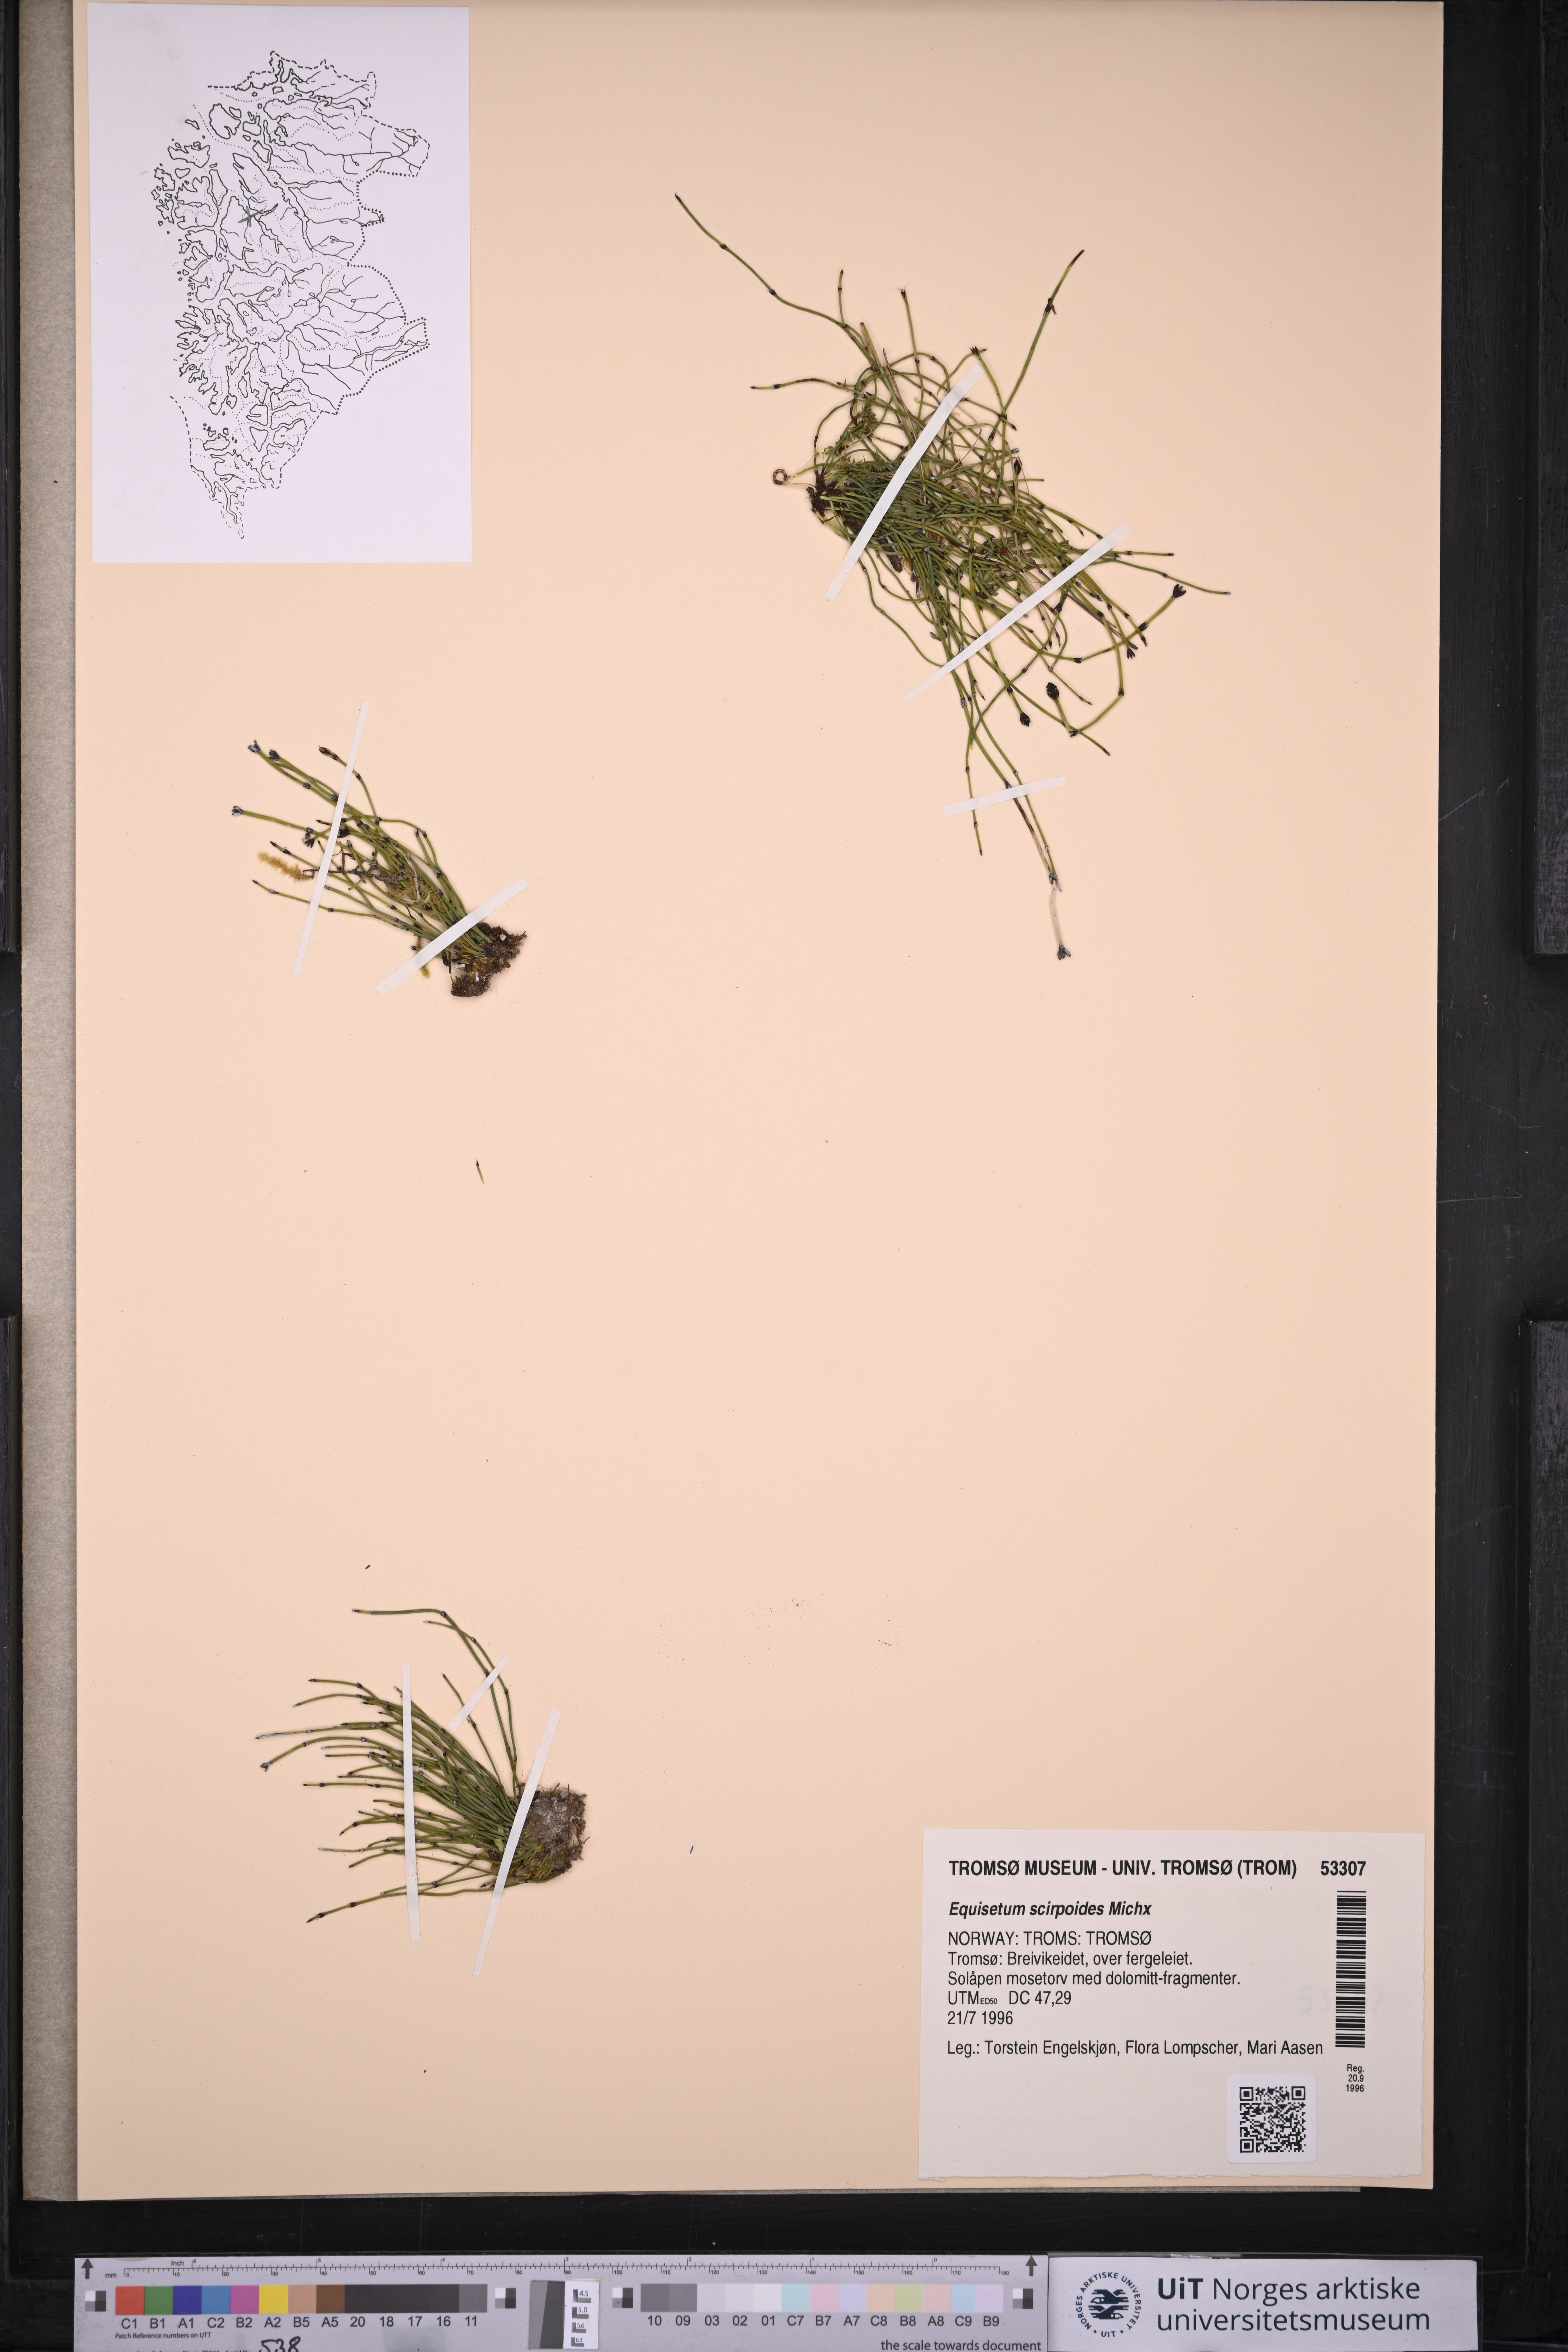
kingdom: Plantae
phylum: Tracheophyta
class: Polypodiopsida
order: Equisetales
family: Equisetaceae
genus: Equisetum
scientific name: Equisetum scirpoides
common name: Delicate horsetail
